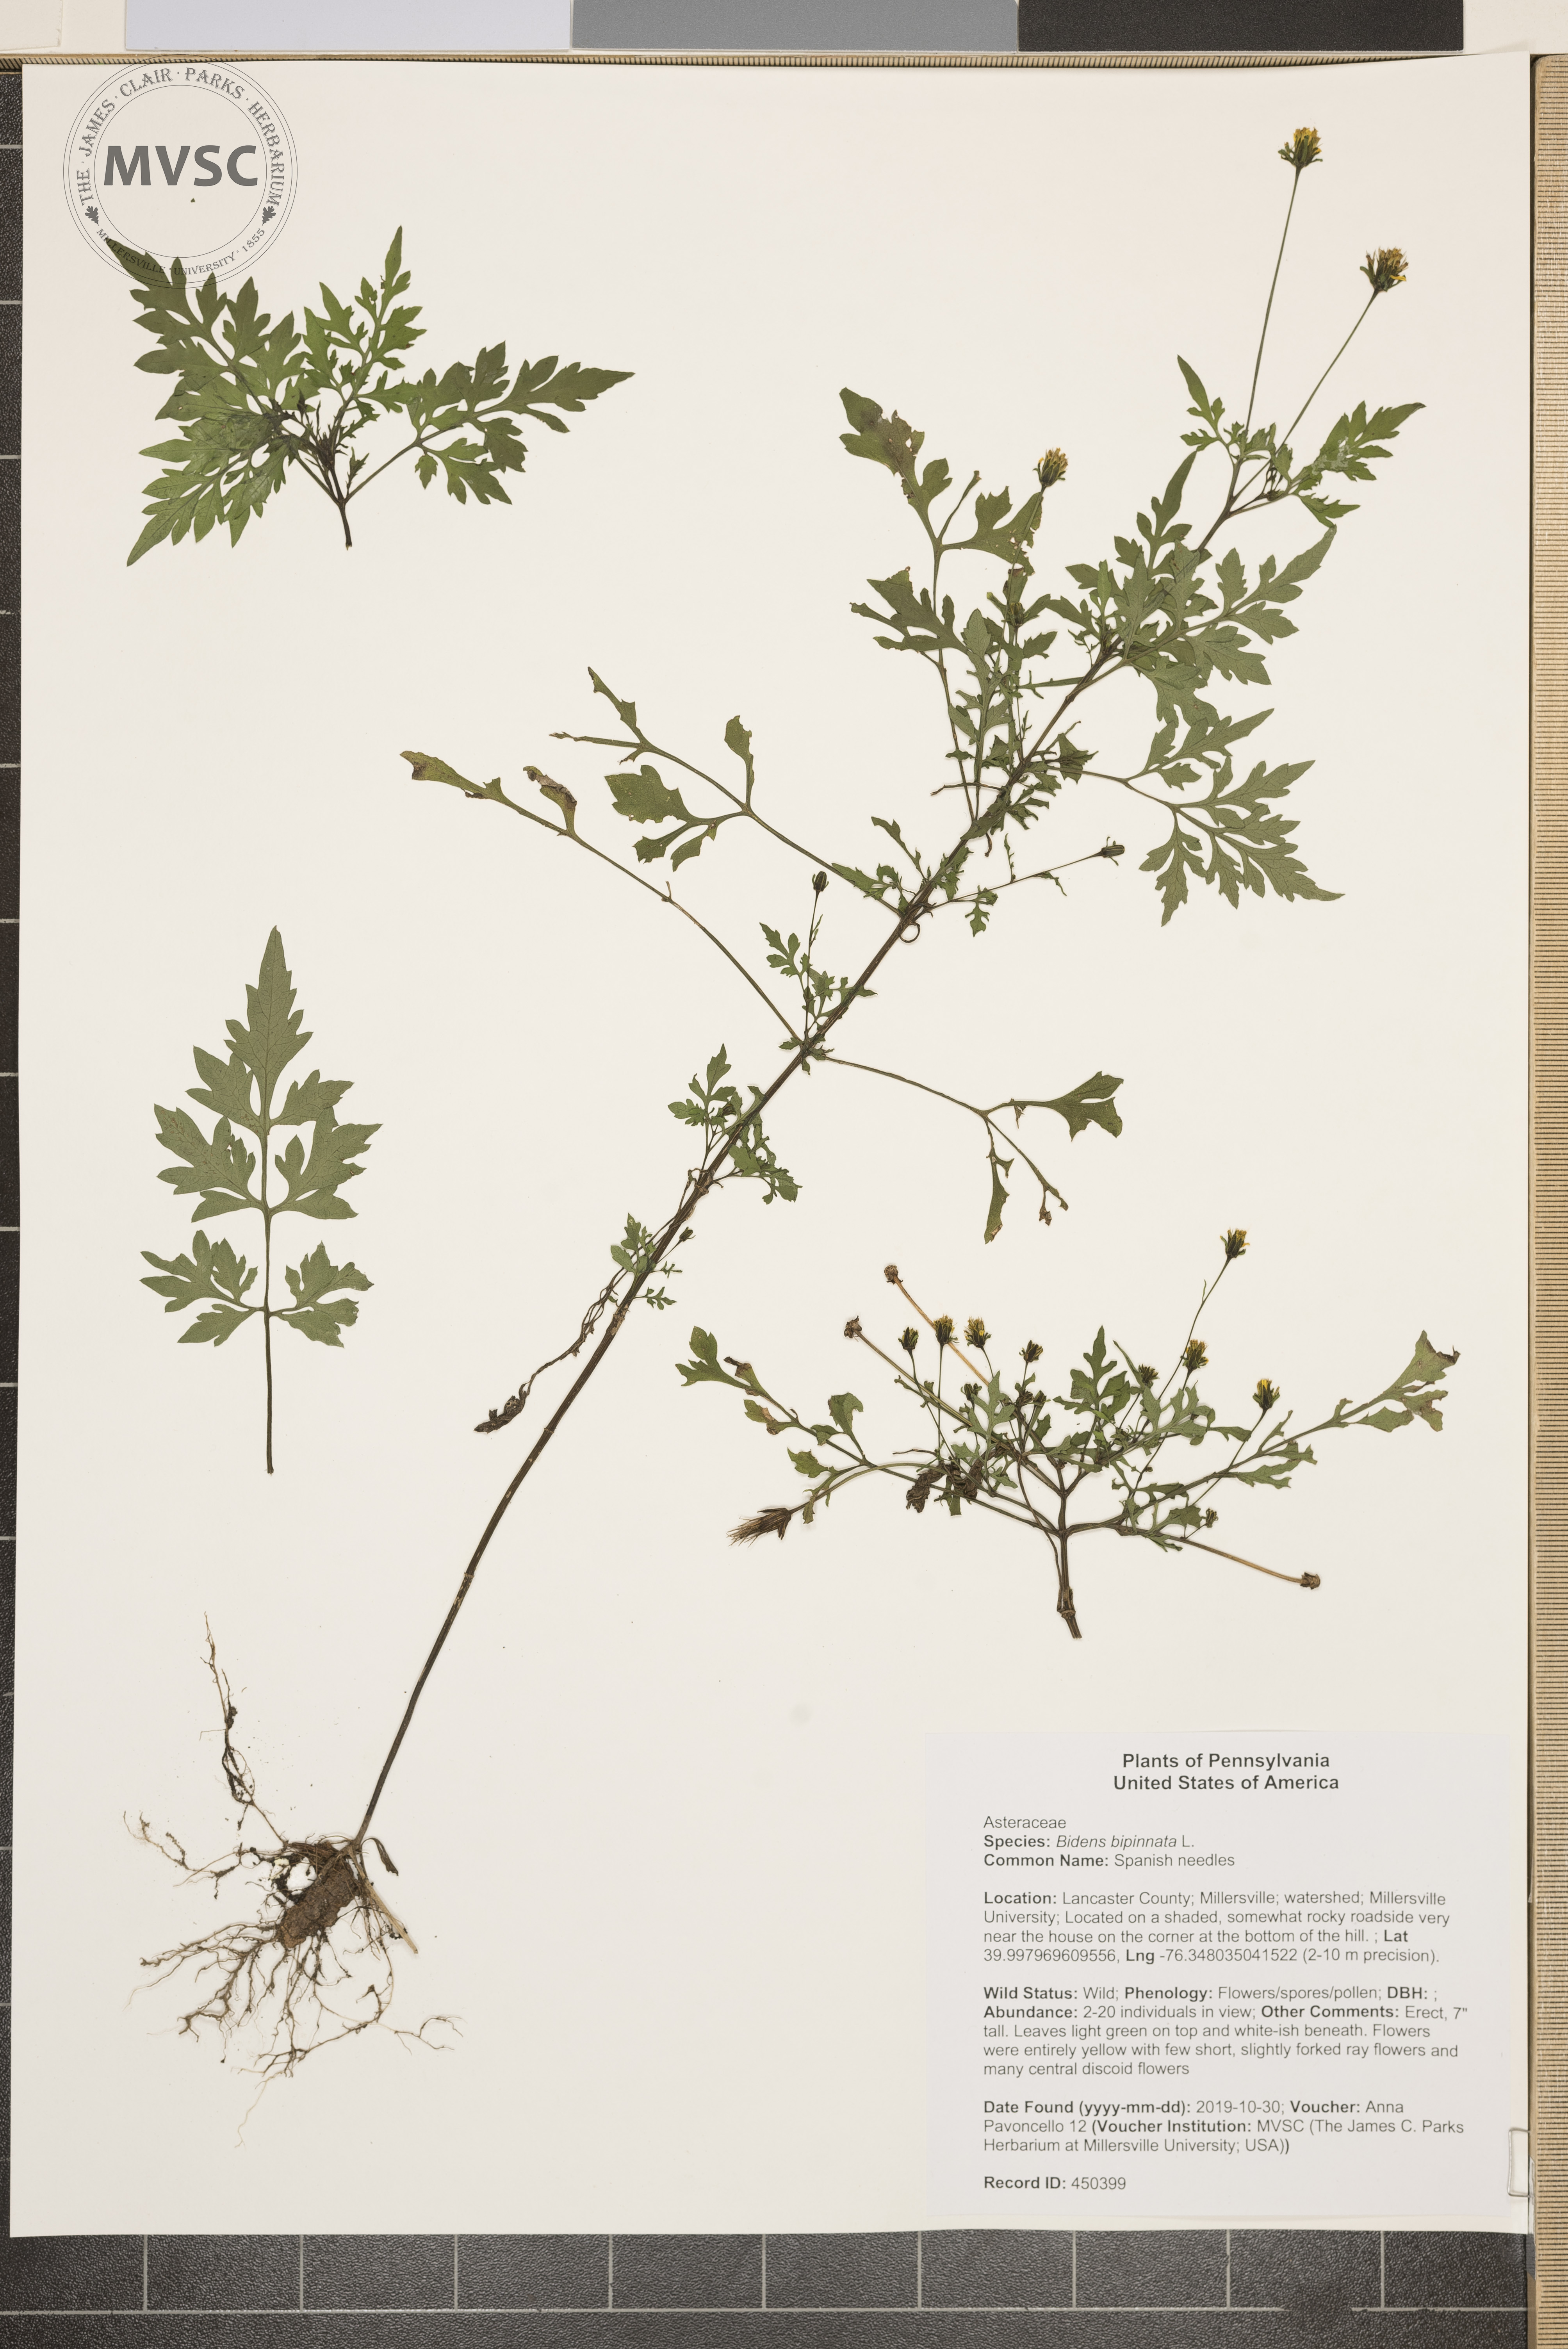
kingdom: Plantae
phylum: Tracheophyta
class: Magnoliopsida
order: Asterales
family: Asteraceae
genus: Bidens
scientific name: Bidens bipinnata
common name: Spanish needles
